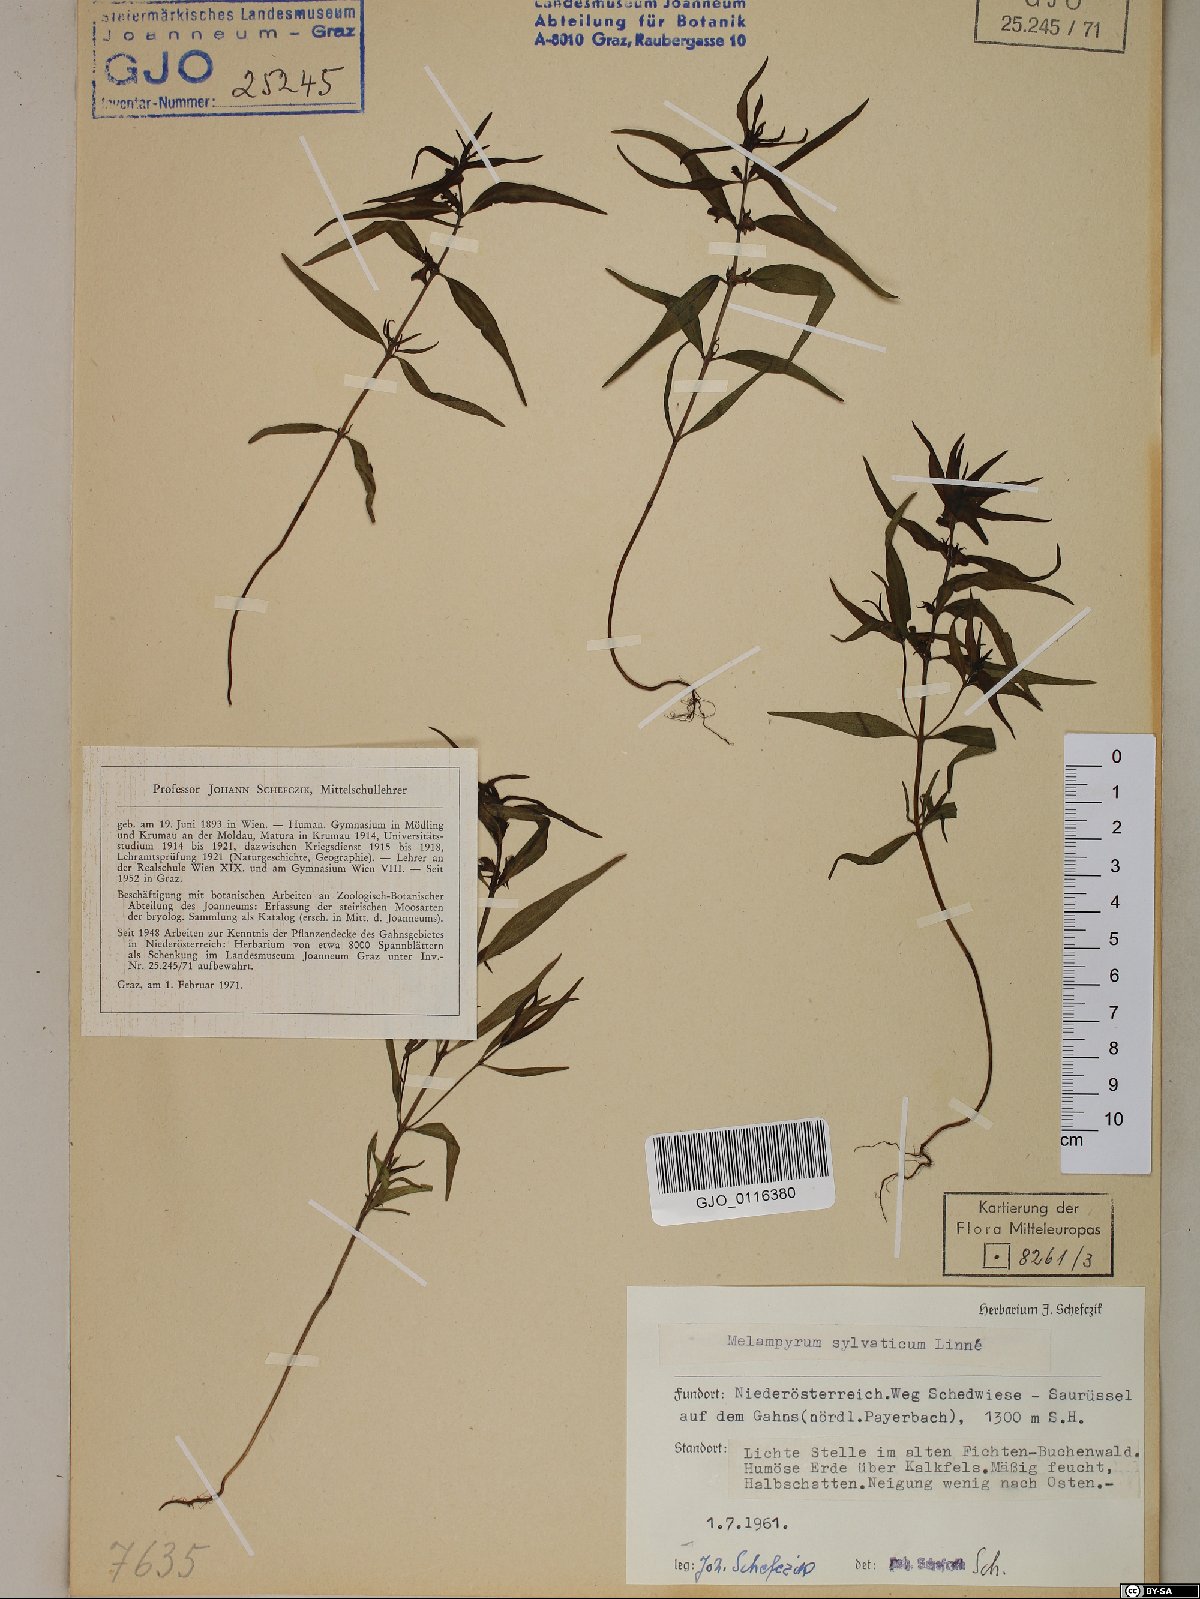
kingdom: Plantae
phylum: Tracheophyta
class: Magnoliopsida
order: Lamiales
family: Orobanchaceae
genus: Melampyrum
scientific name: Melampyrum sylvaticum
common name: Small cow-wheat
